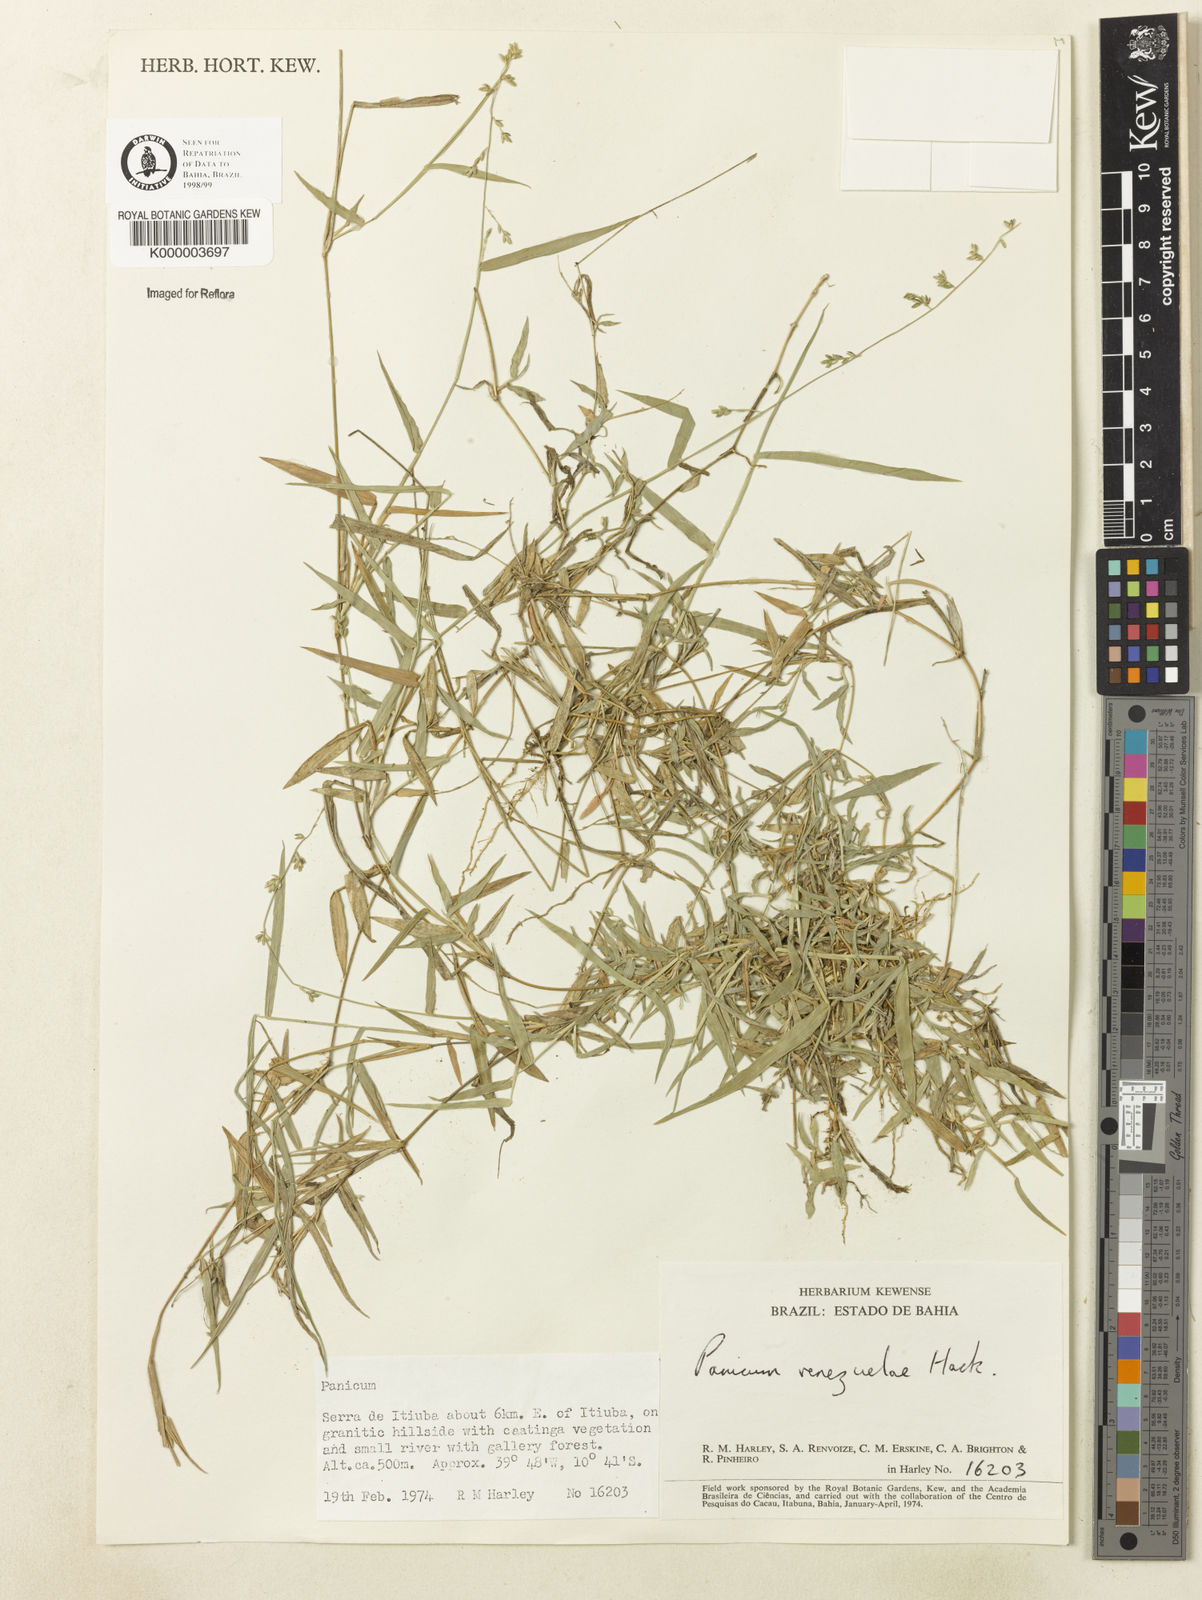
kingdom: Plantae
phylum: Tracheophyta
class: Liliopsida
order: Poales
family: Poaceae
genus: Panicum
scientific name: Panicum venezuelae
